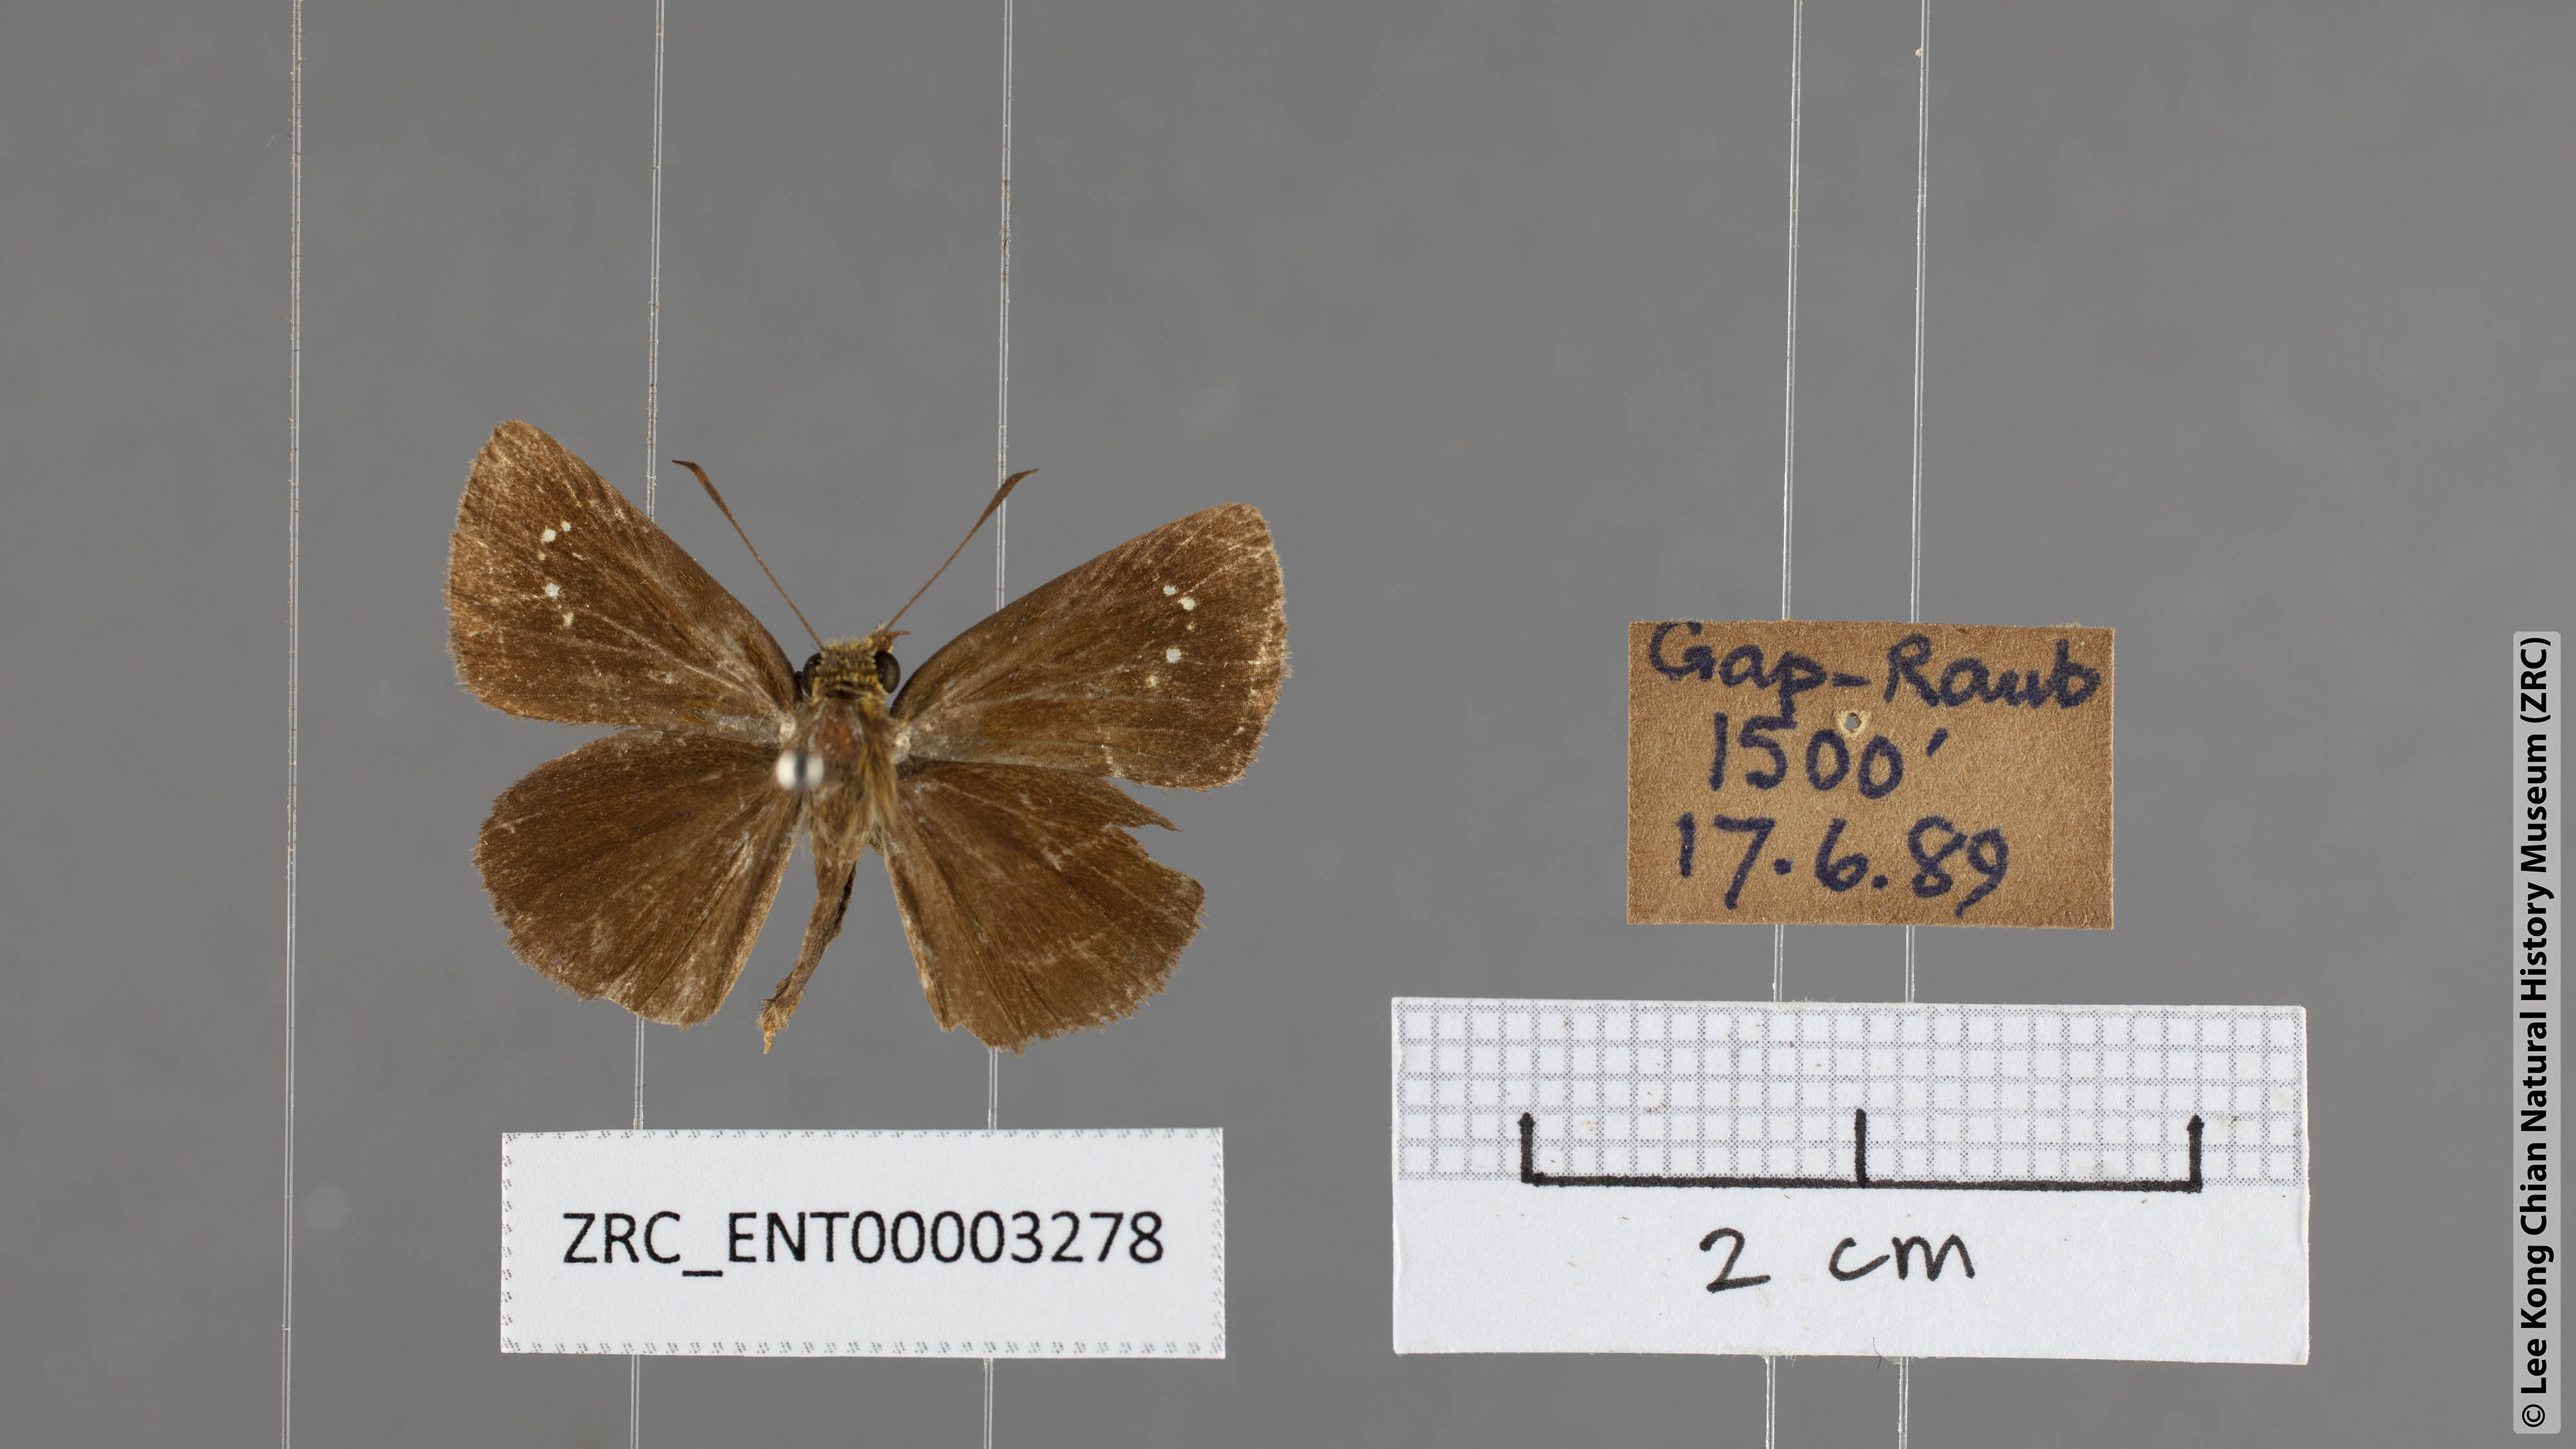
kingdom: Animalia
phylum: Arthropoda
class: Insecta
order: Lepidoptera
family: Hesperiidae
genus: Iambrix
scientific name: Iambrix salsala
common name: Chestnut bob
